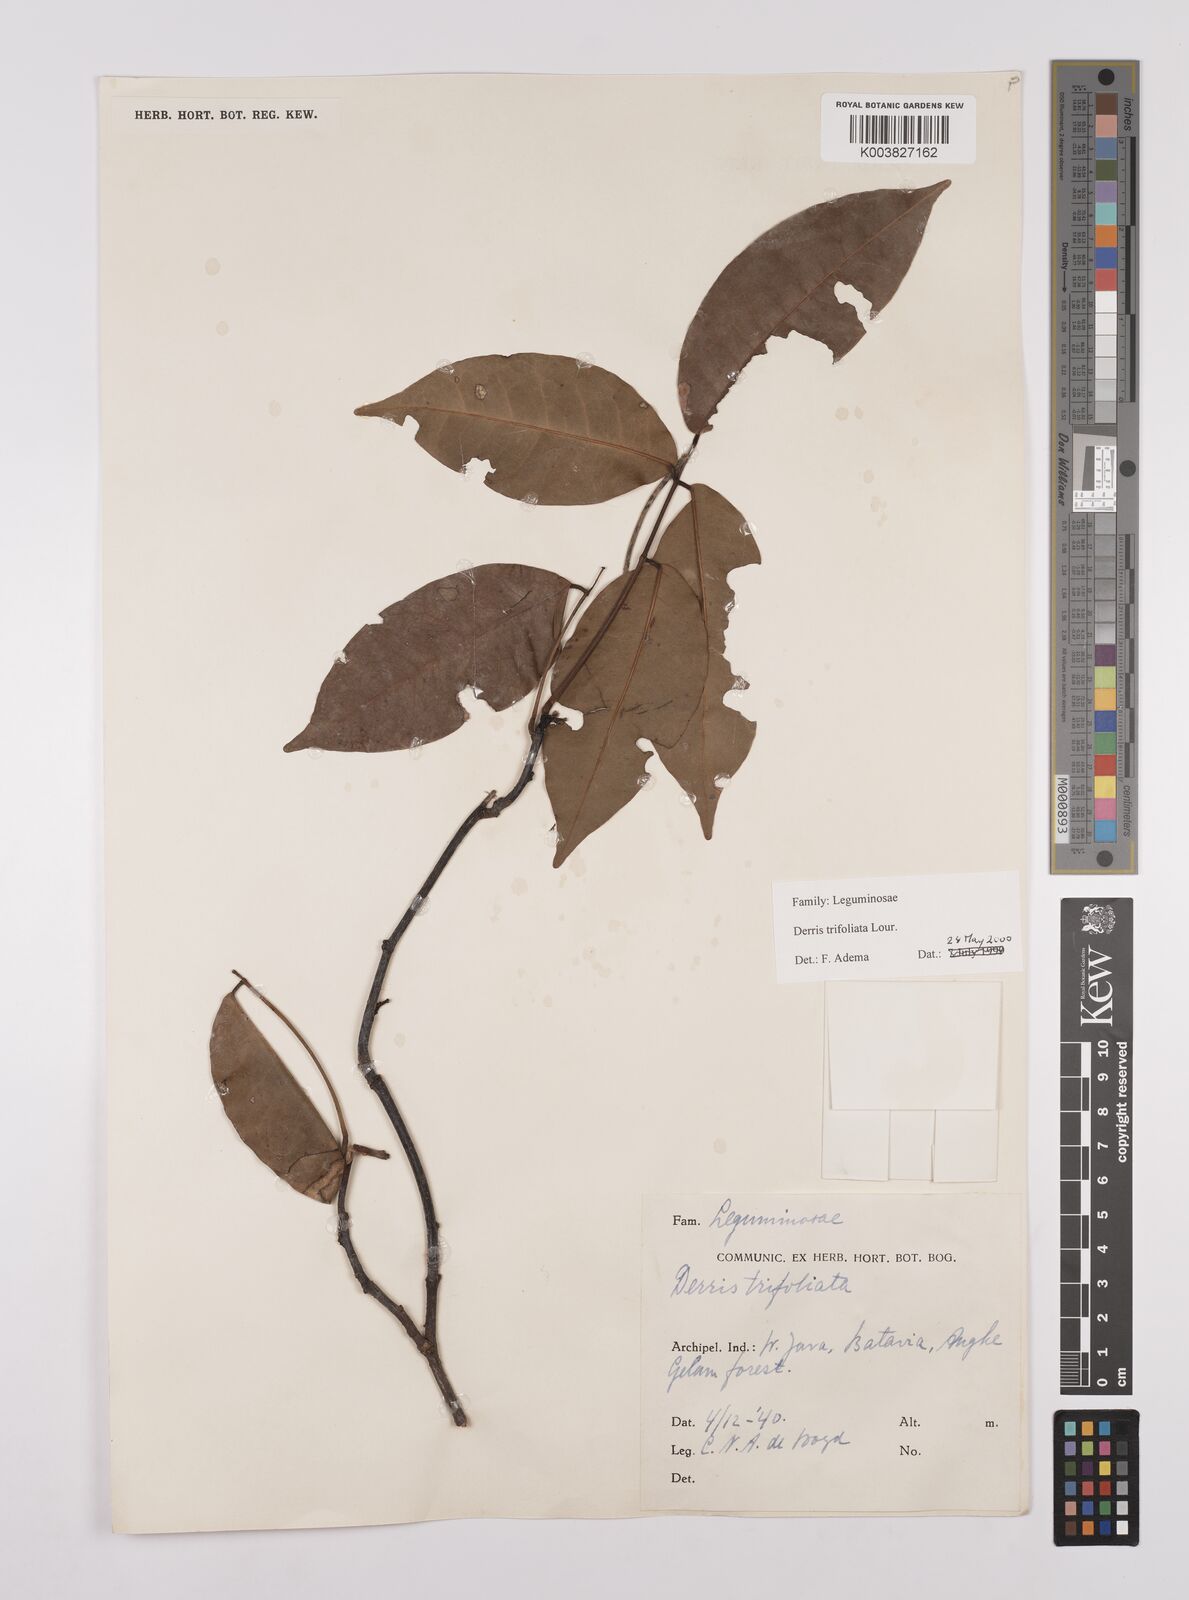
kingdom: Plantae
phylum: Tracheophyta
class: Magnoliopsida
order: Fabales
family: Fabaceae
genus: Derris
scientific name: Derris trifoliata
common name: Three-leaf derris
